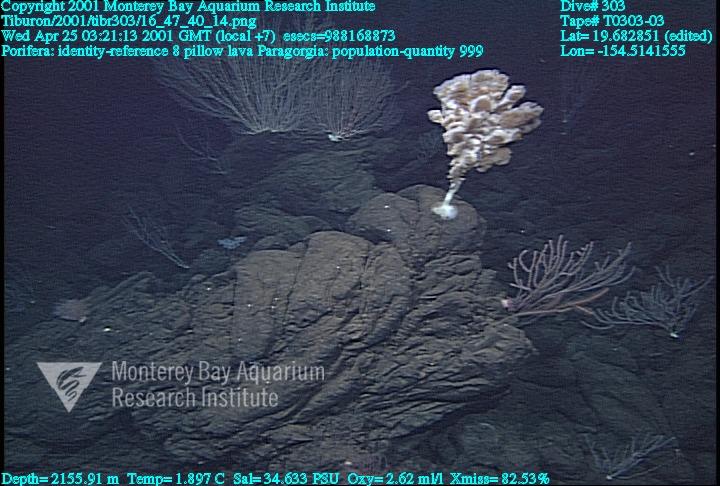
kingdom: Animalia
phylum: Porifera
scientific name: Porifera
